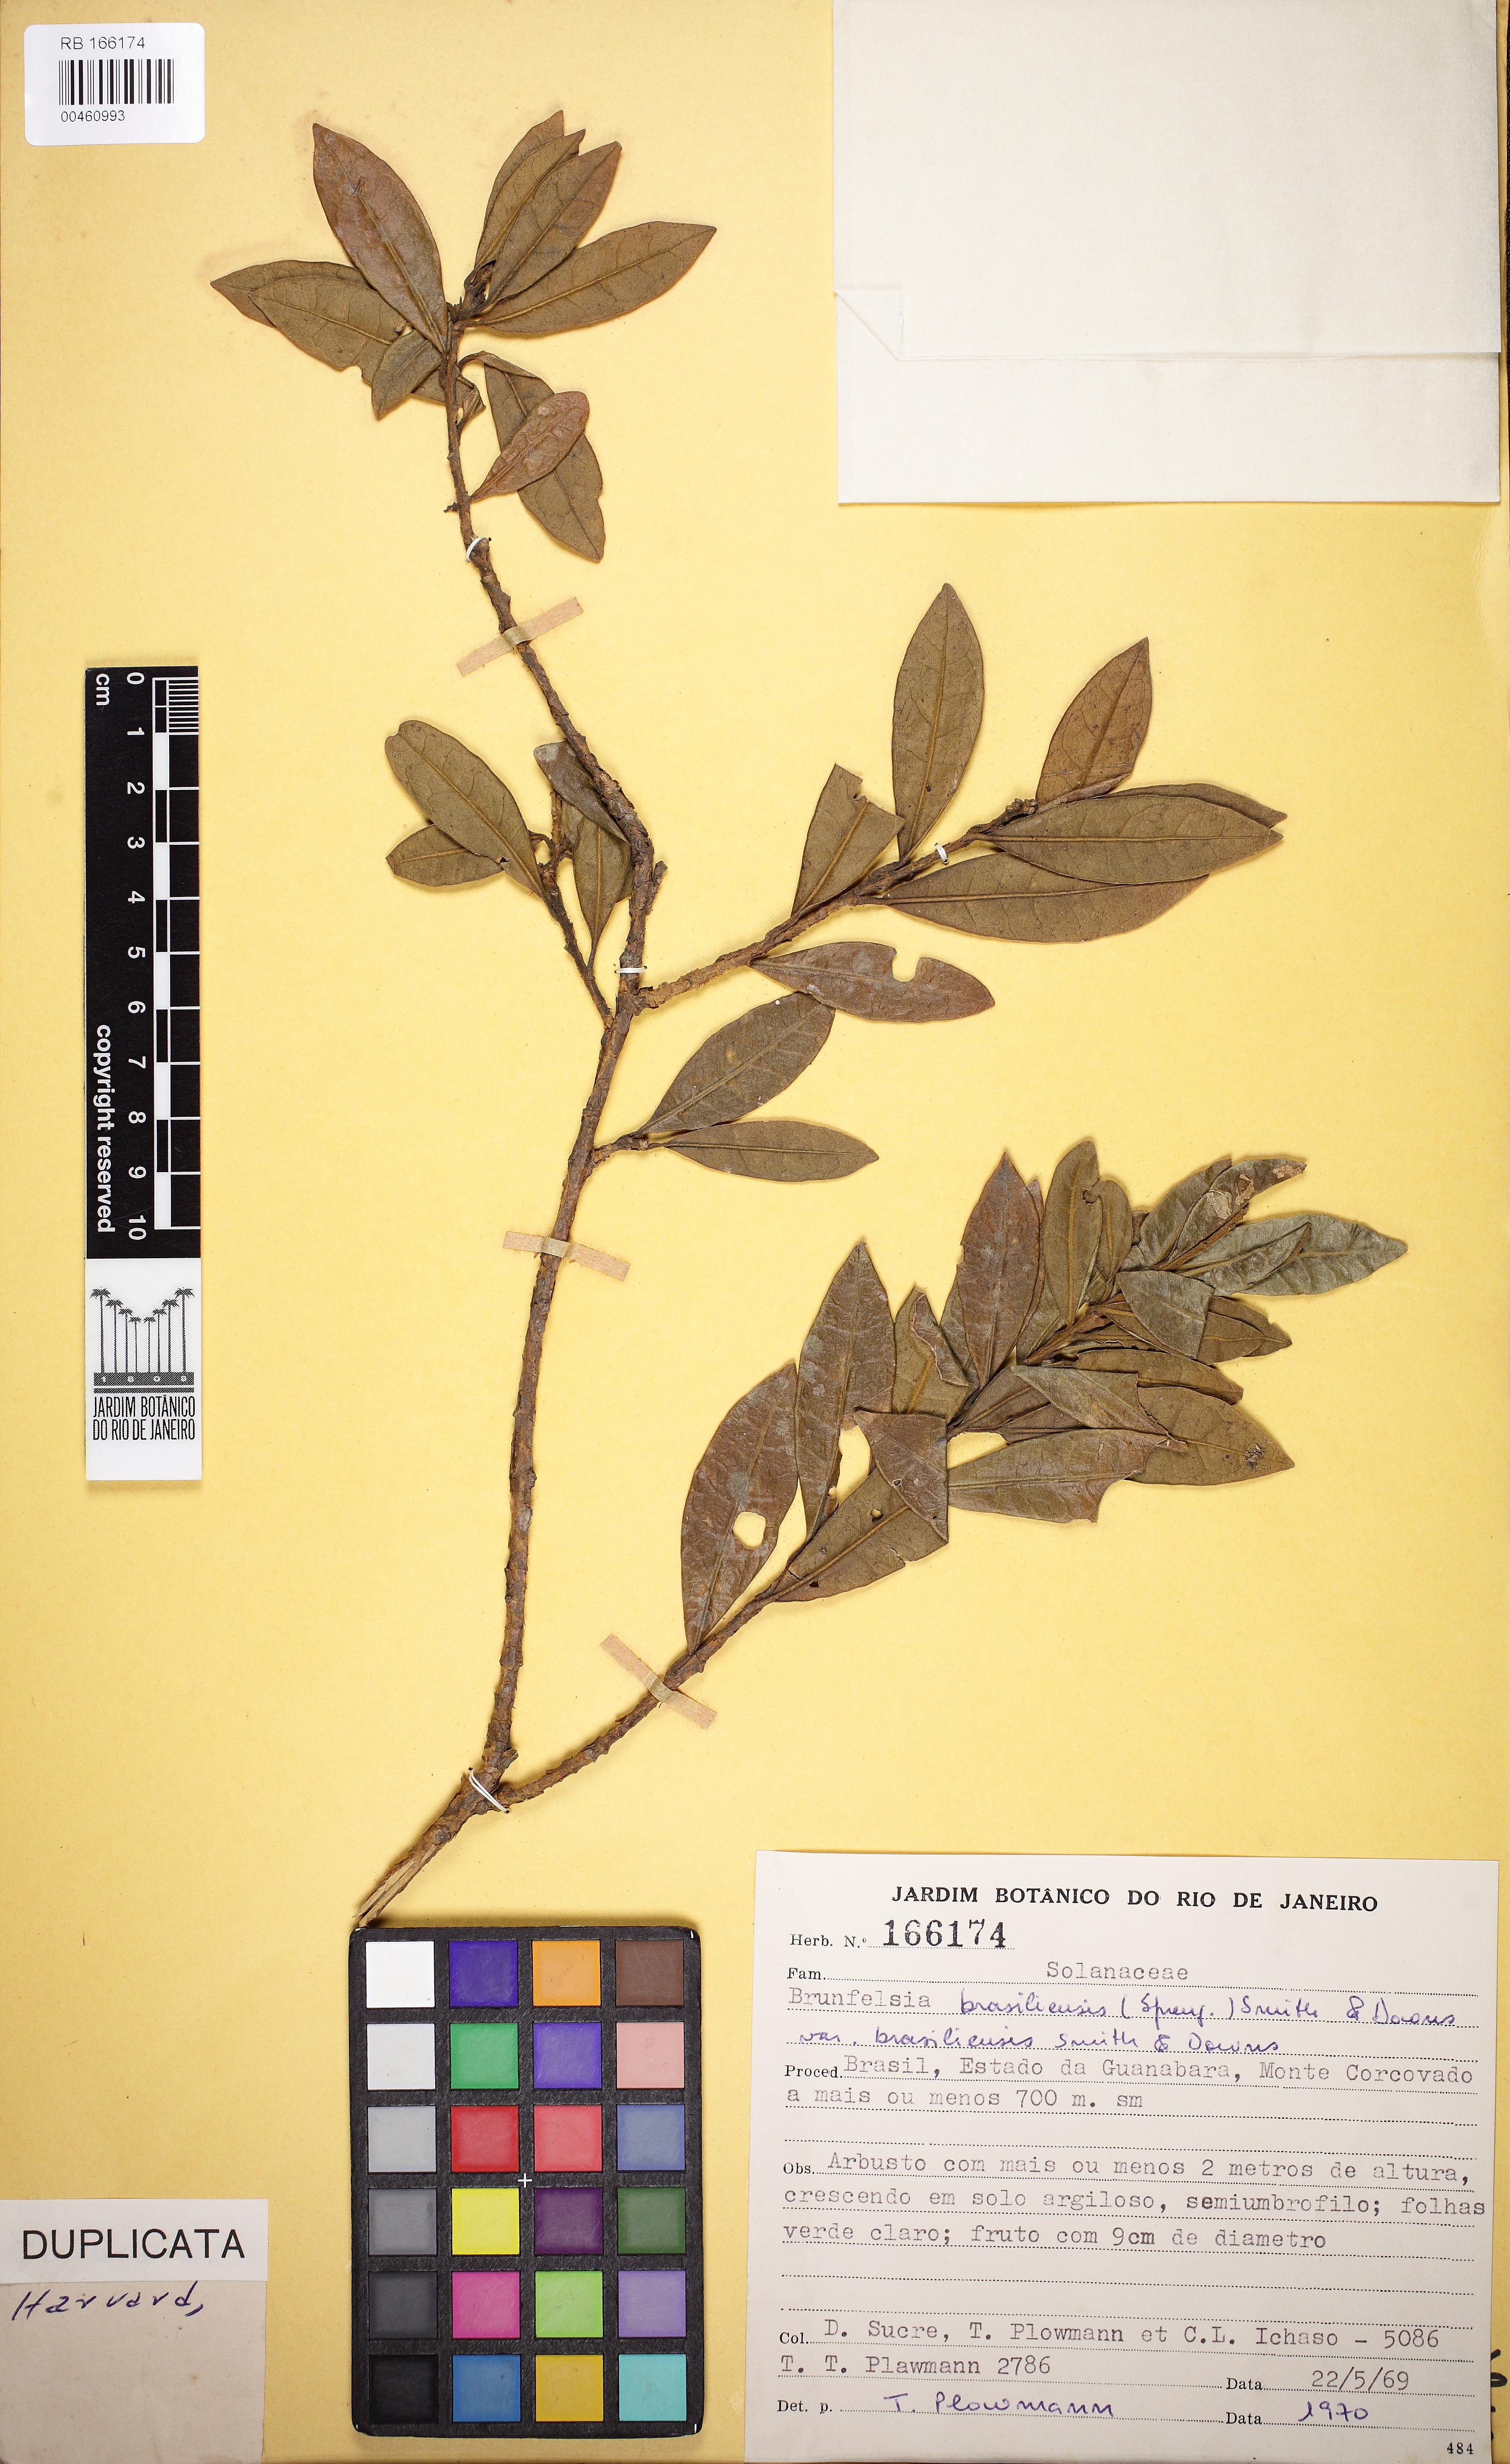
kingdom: Plantae
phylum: Tracheophyta
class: Magnoliopsida
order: Solanales
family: Solanaceae
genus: Brunfelsia
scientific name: Brunfelsia brasiliensis
